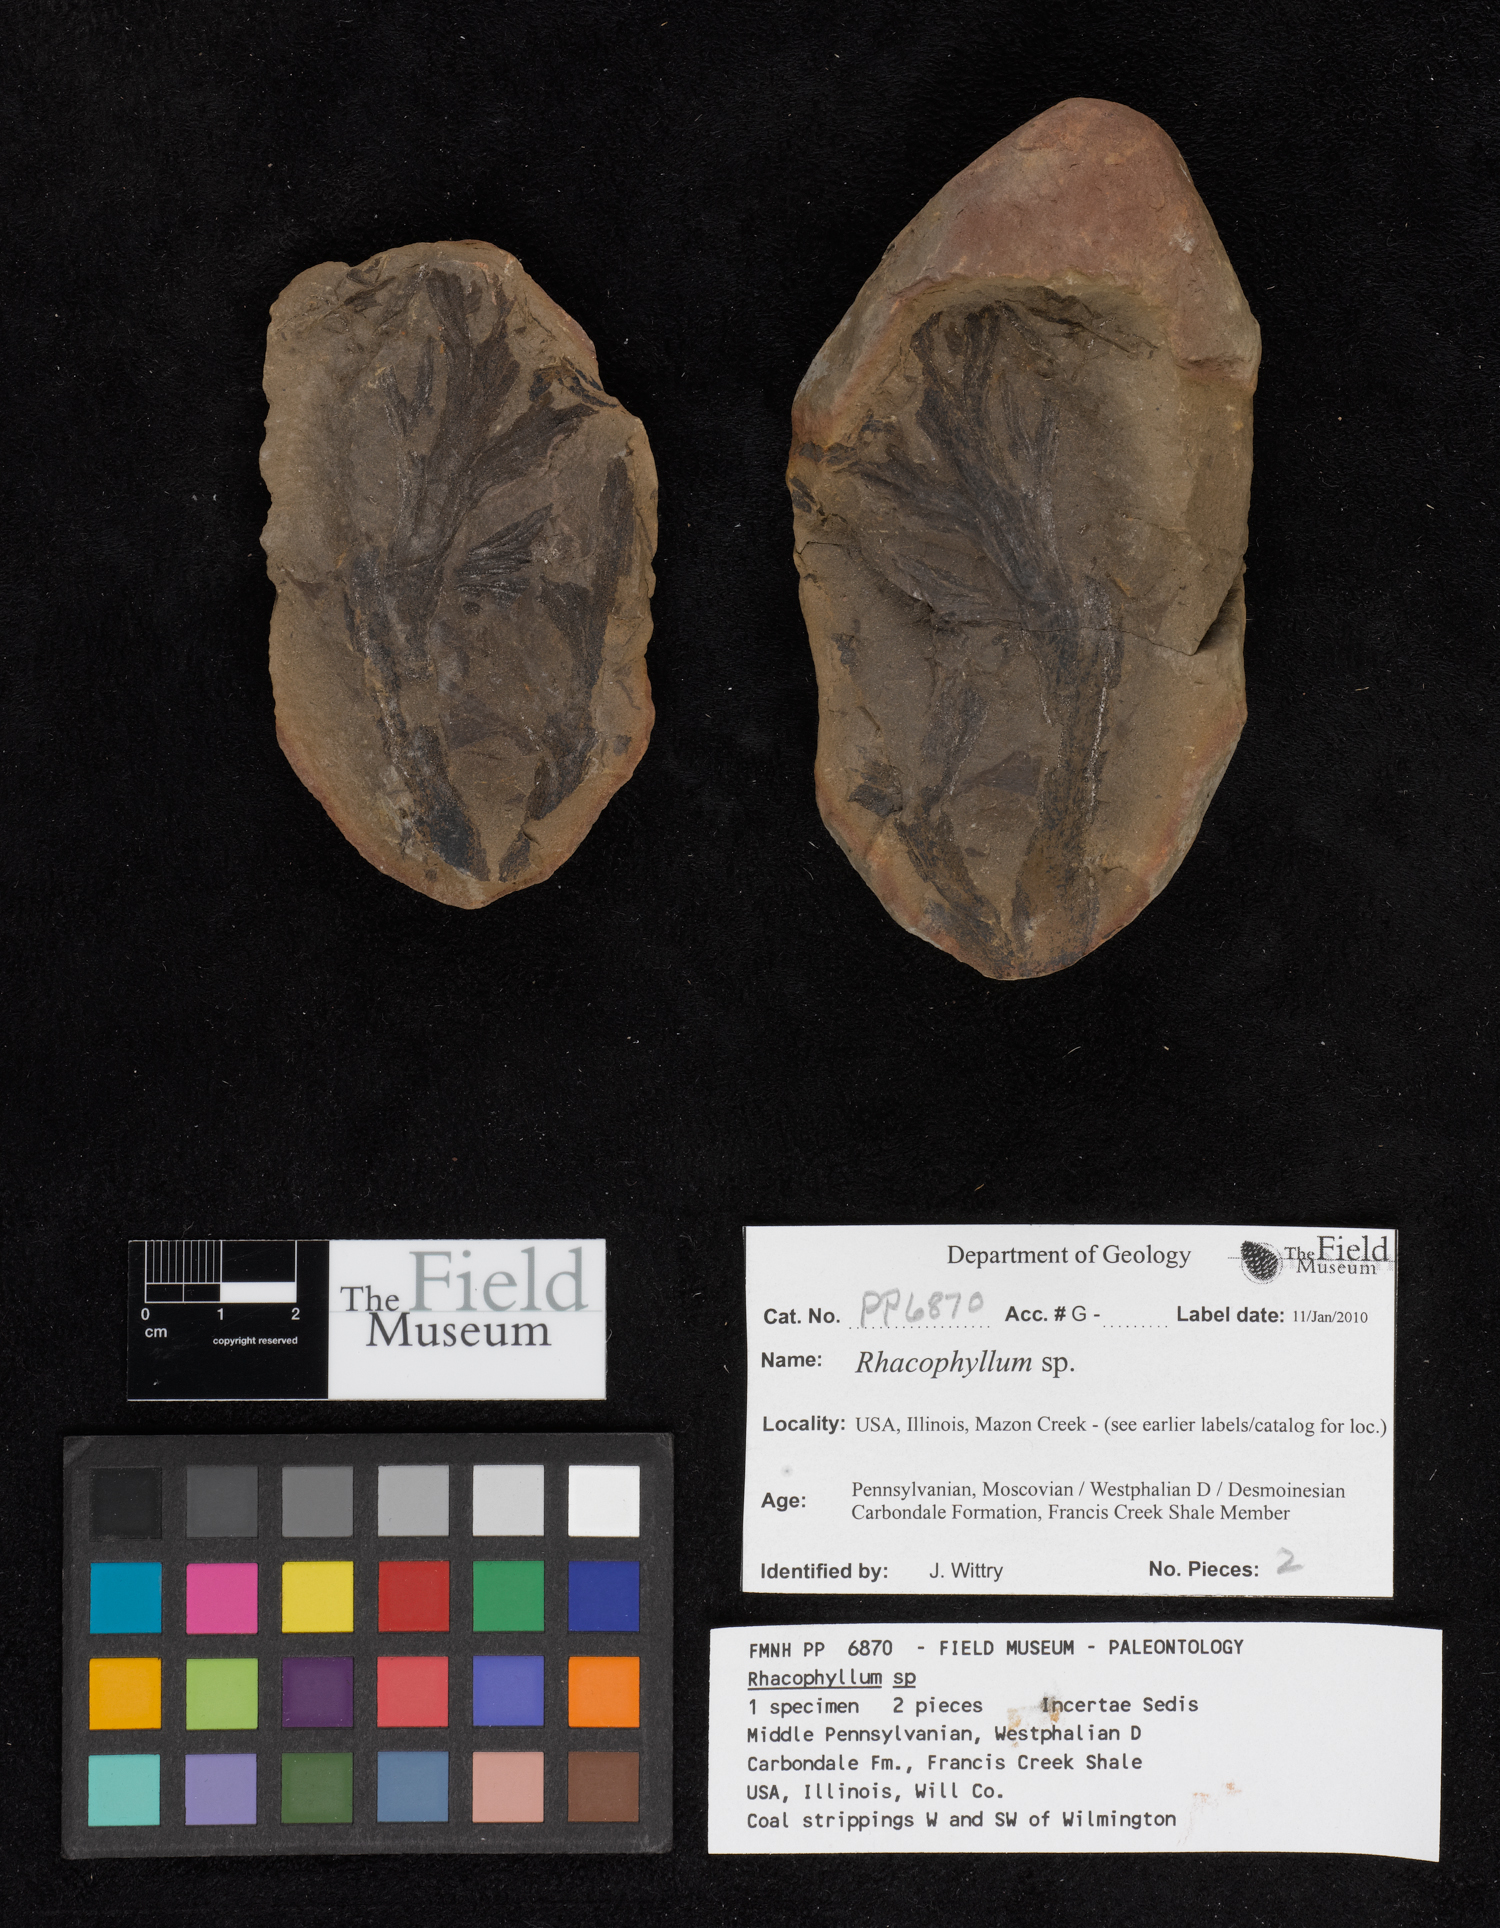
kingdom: Plantae
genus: Rhacophyllum
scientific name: Rhacophyllum
